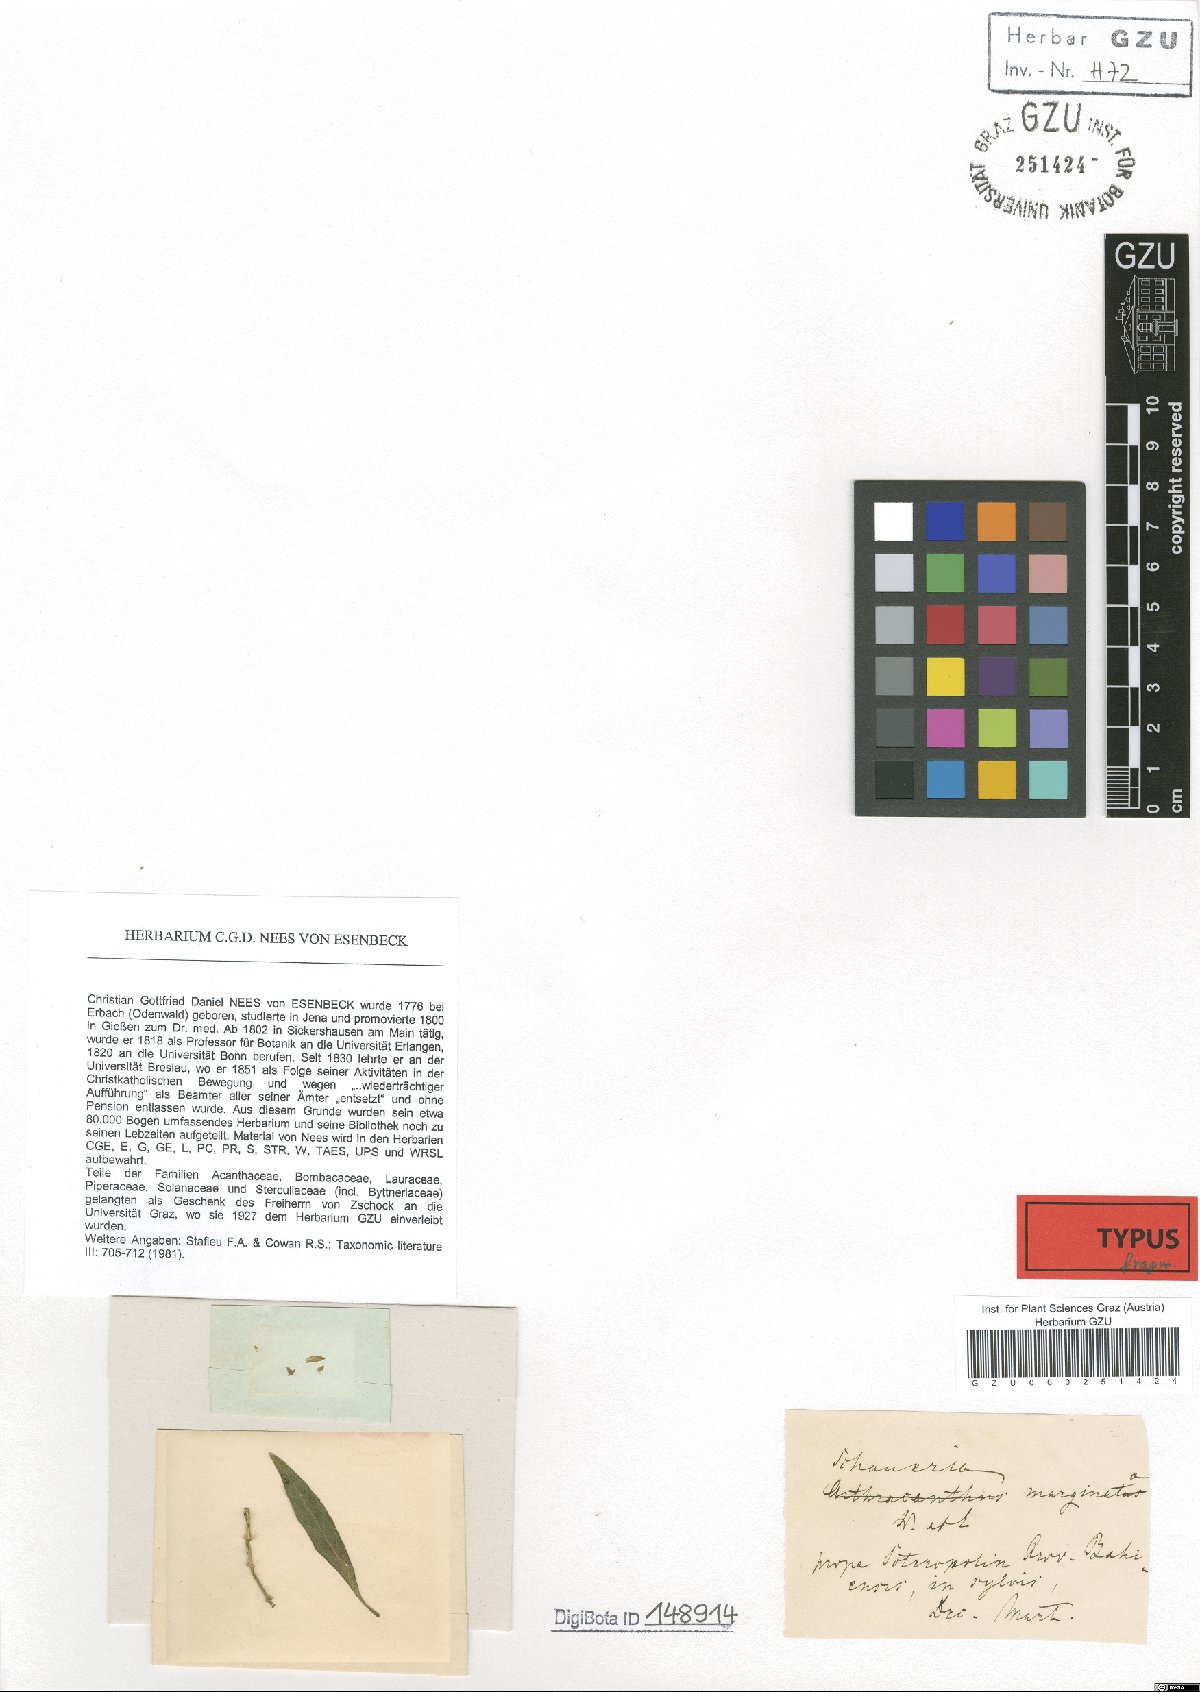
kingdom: Plantae
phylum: Tracheophyta
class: Magnoliopsida
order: Lamiales
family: Acanthaceae
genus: Schaueria
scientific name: Schaueria marginata
